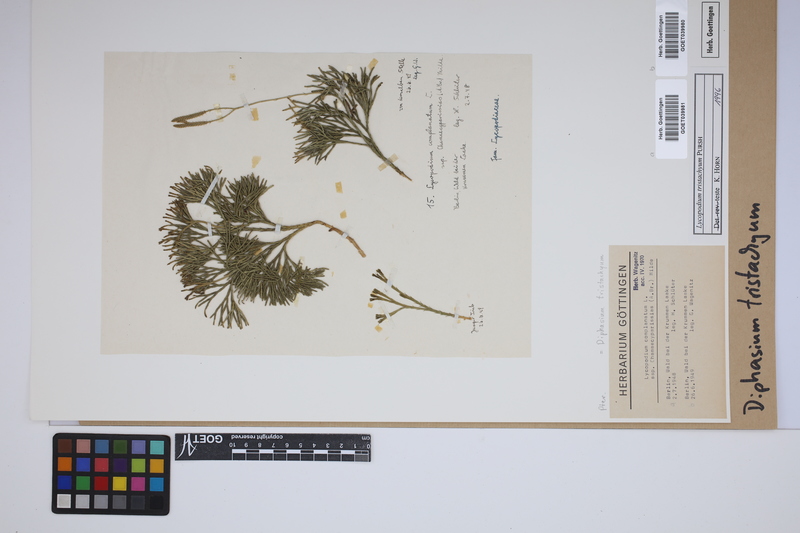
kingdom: Plantae
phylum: Tracheophyta
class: Lycopodiopsida
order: Lycopodiales
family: Lycopodiaceae
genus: Diphasiastrum
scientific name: Diphasiastrum tristachyum
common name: Blue ground-cedar
